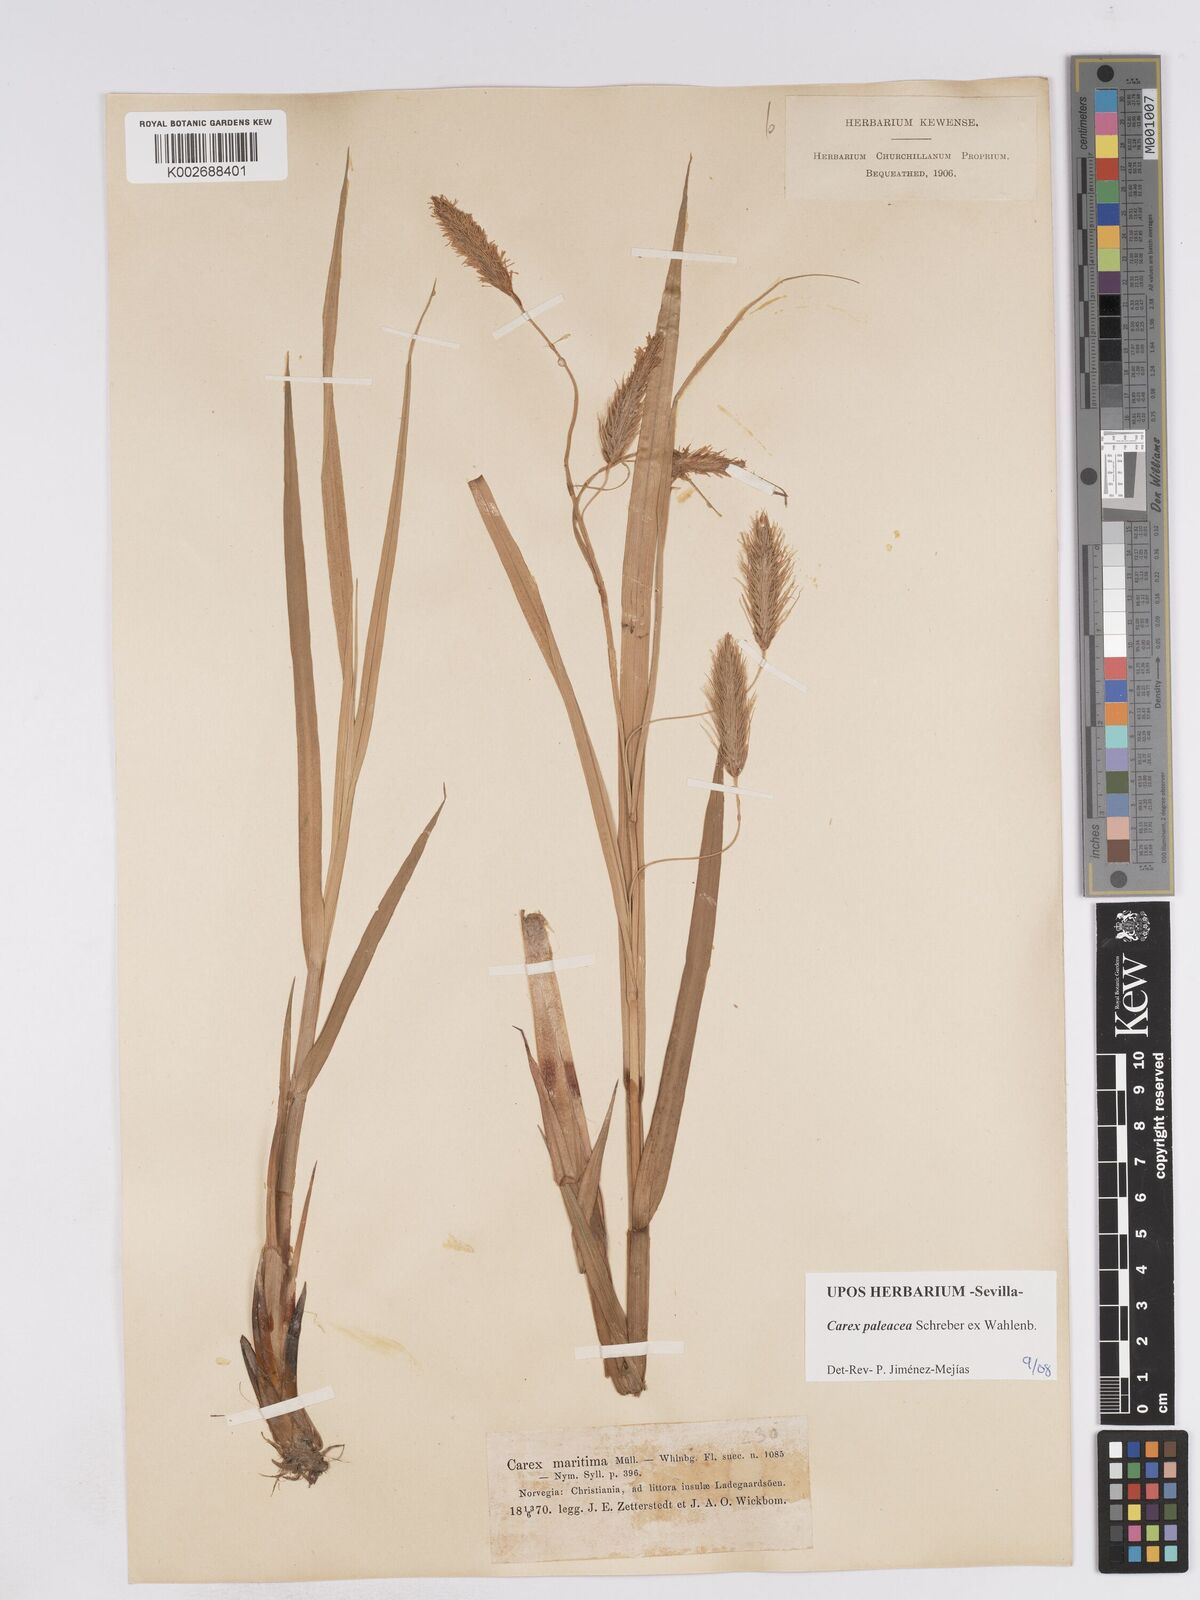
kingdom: Plantae
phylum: Tracheophyta
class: Liliopsida
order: Poales
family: Cyperaceae
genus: Carex
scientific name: Carex paleacea
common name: Chaffy sedge
